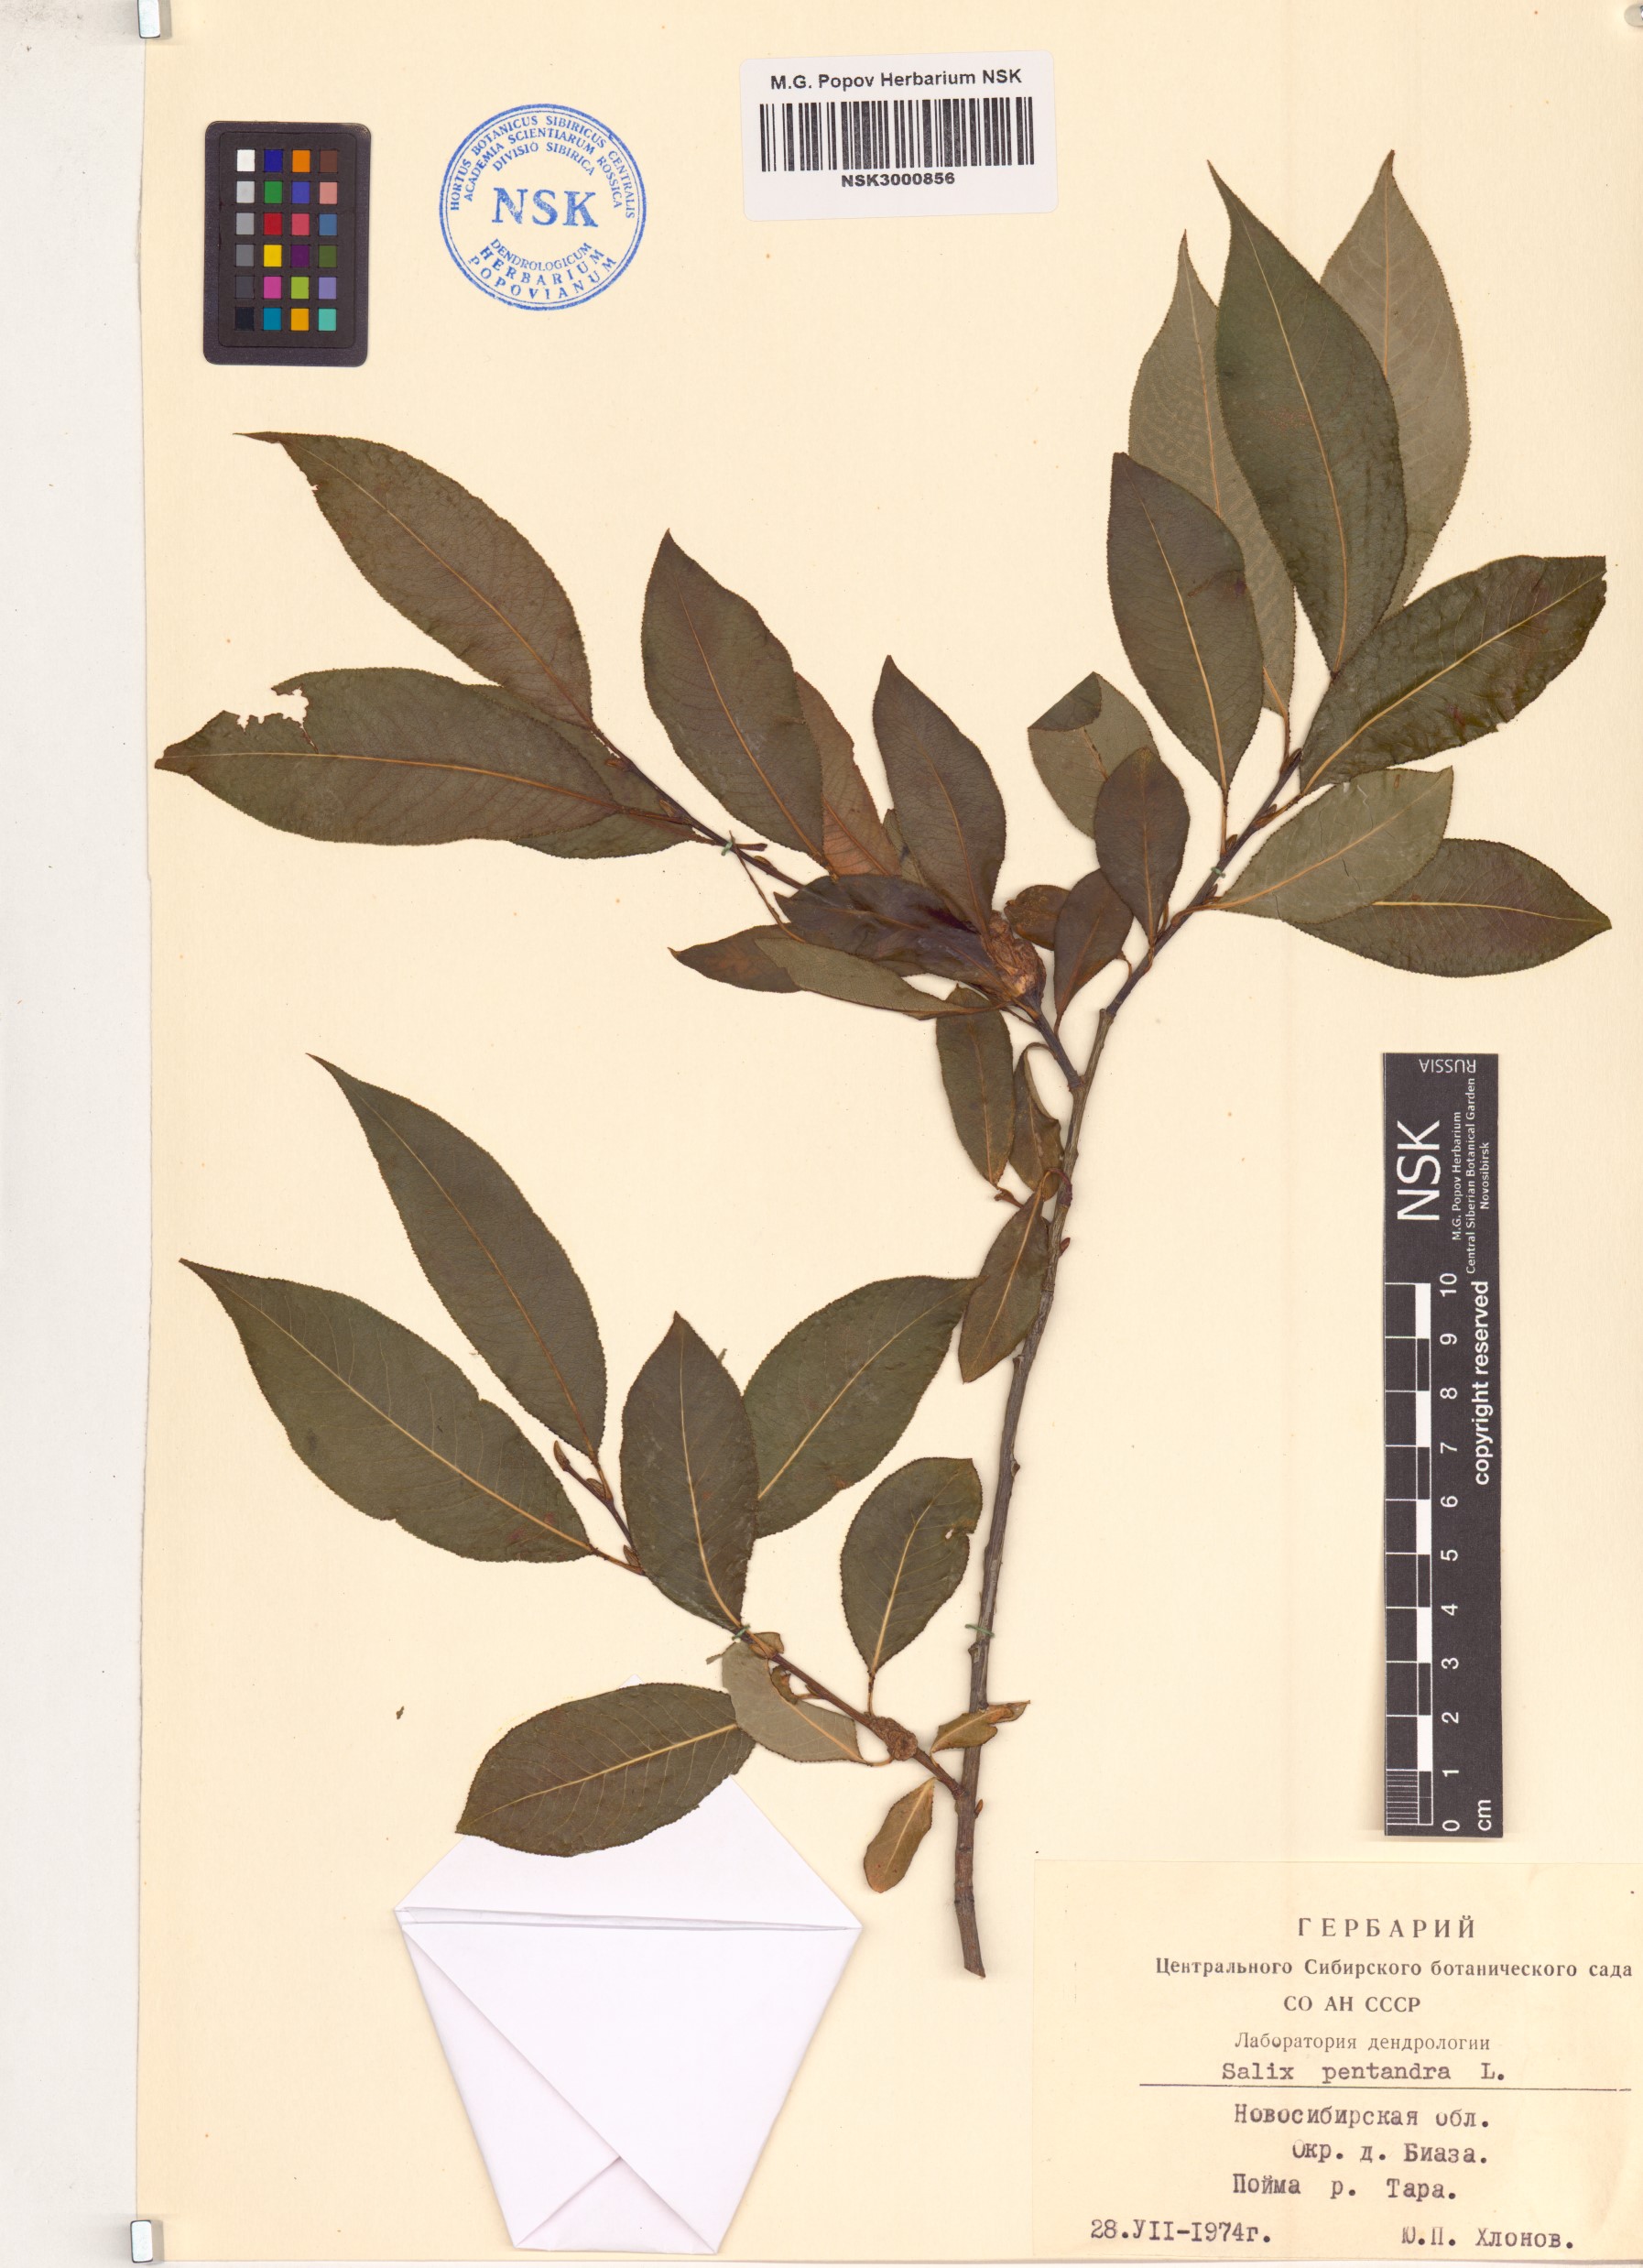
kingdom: Plantae
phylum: Tracheophyta
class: Magnoliopsida
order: Malpighiales
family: Salicaceae
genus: Salix
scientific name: Salix pentandra
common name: Bay willow
